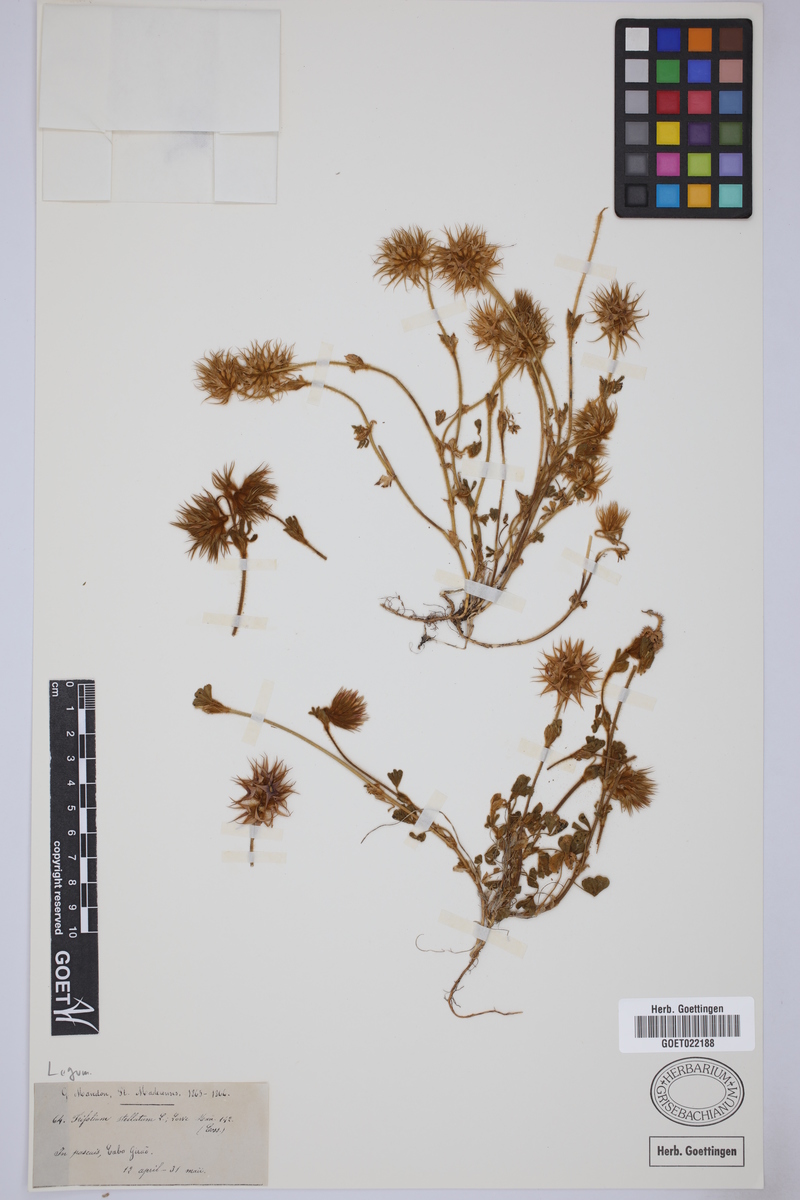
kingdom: Plantae
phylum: Tracheophyta
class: Magnoliopsida
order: Fabales
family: Fabaceae
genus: Trifolium
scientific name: Trifolium stellatum
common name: Starry clover
